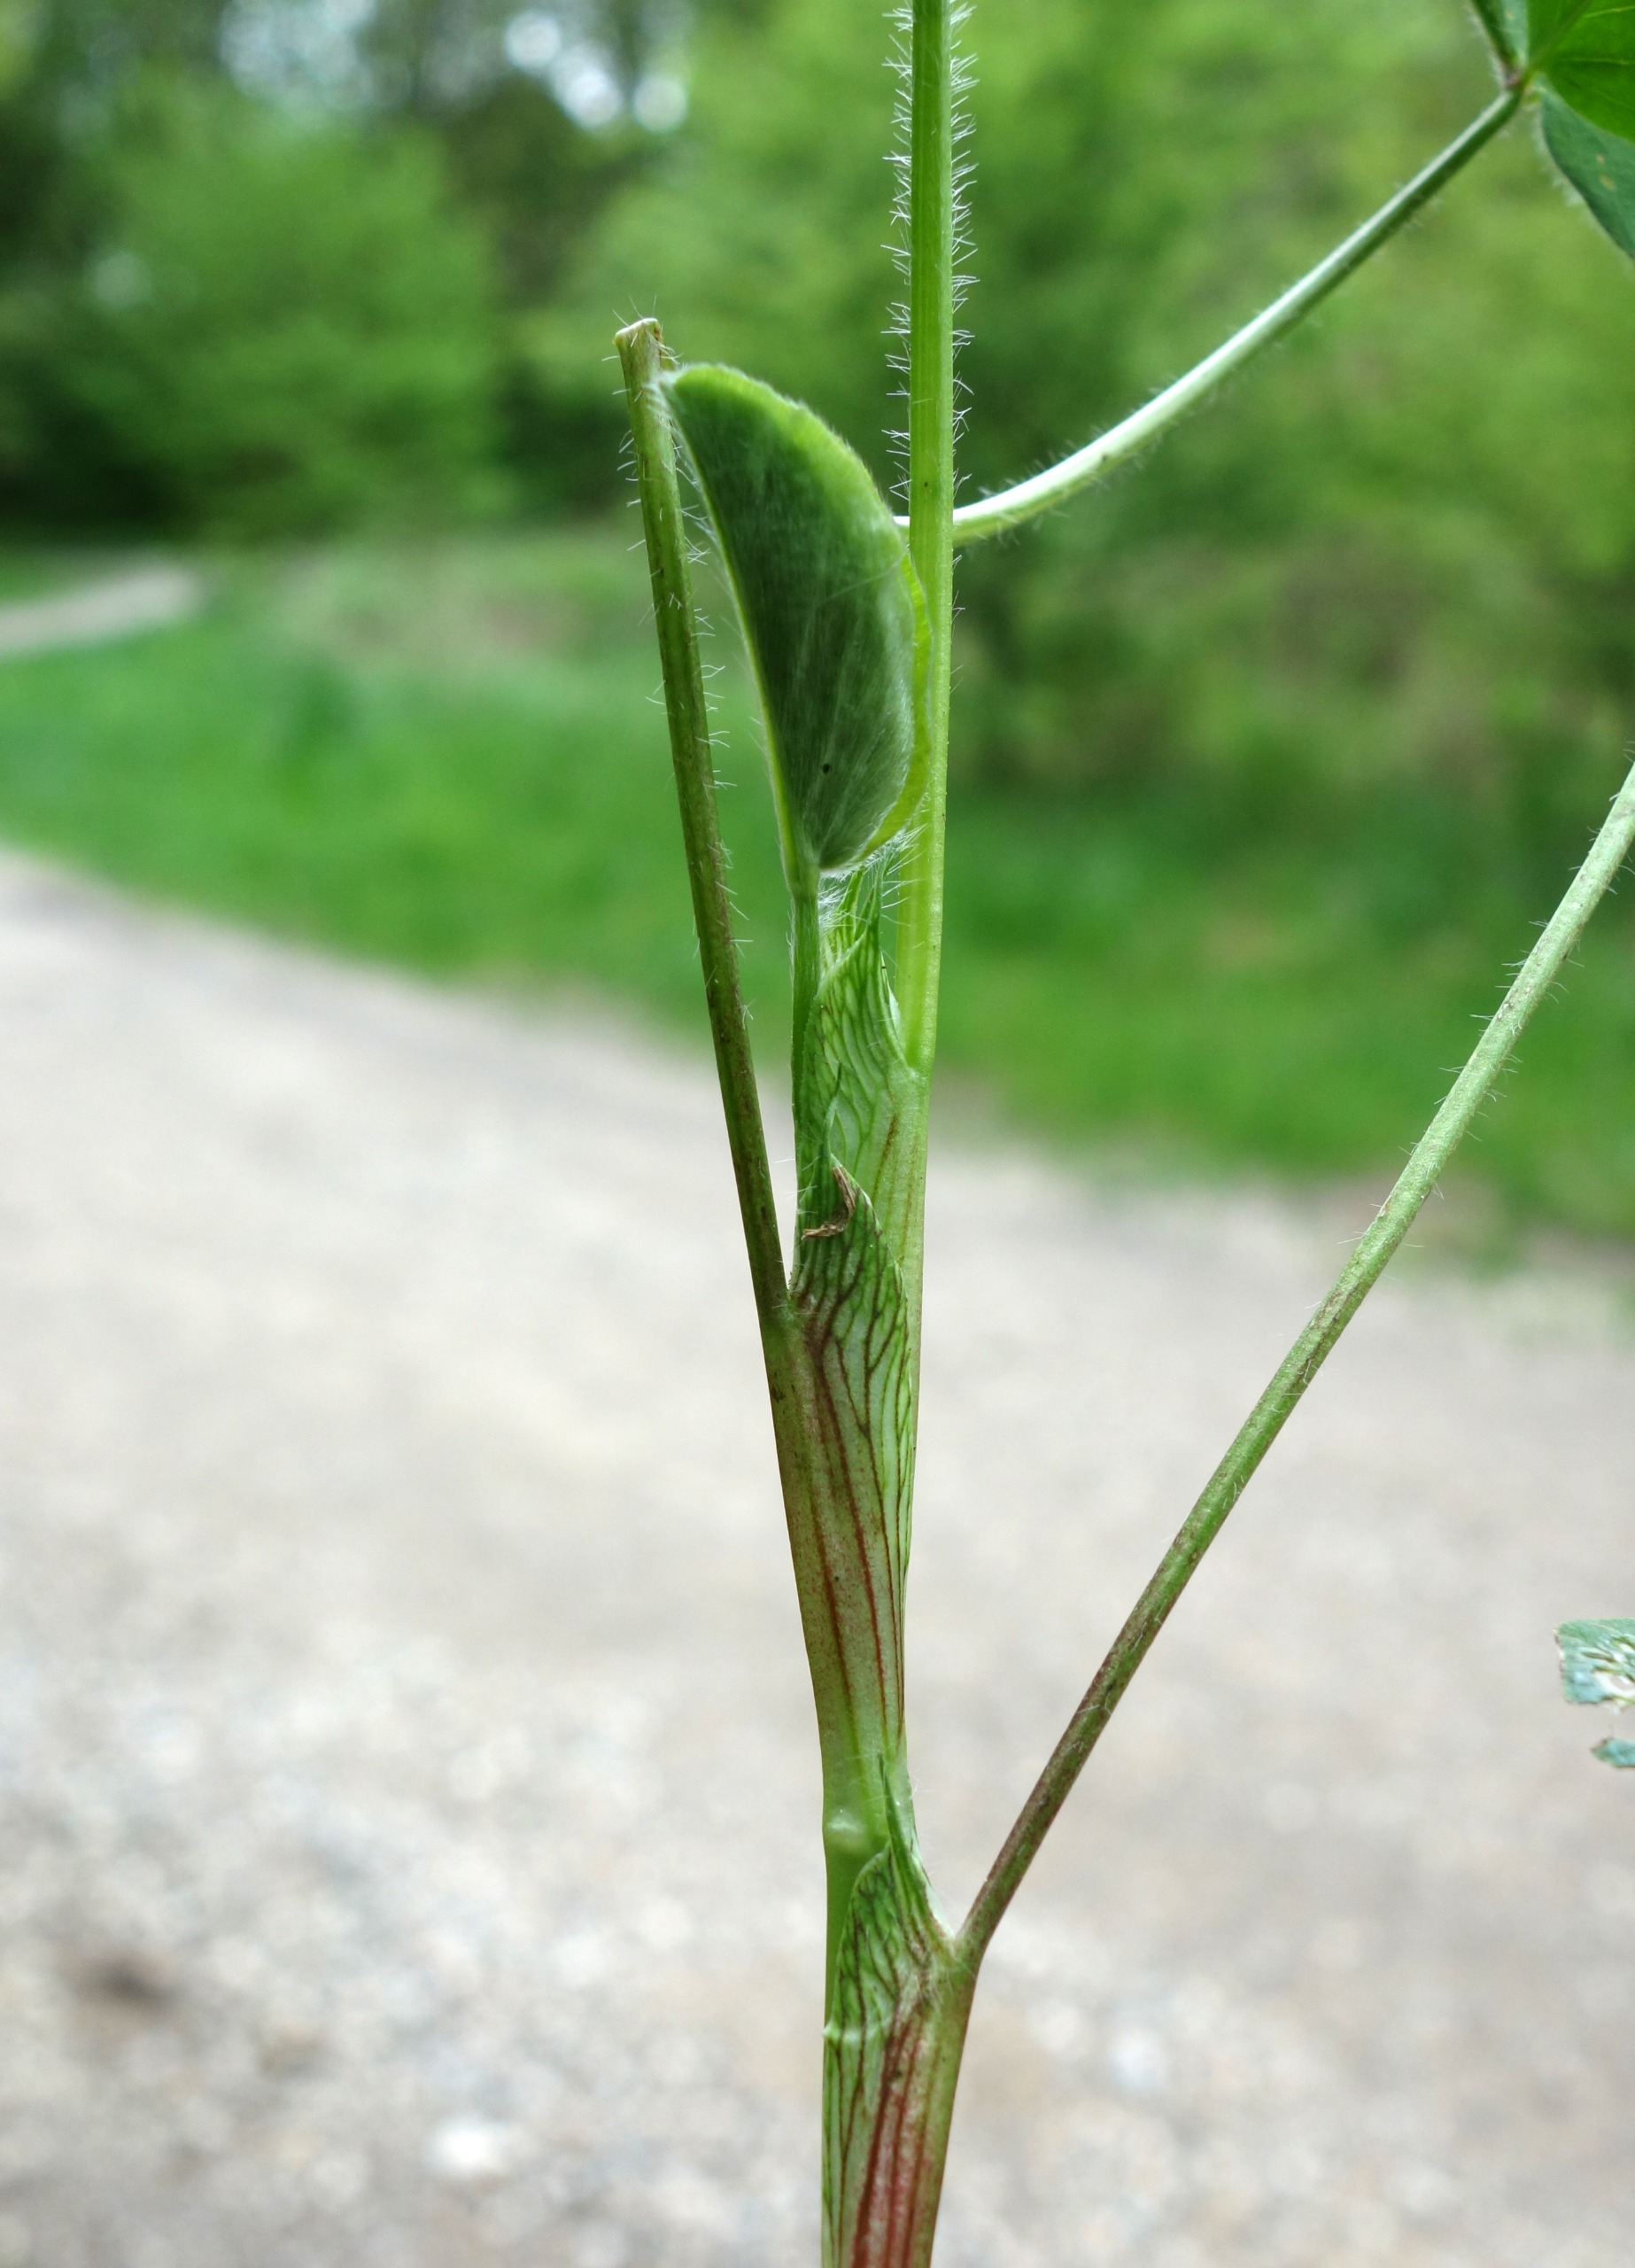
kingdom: Plantae
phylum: Tracheophyta
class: Magnoliopsida
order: Fabales
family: Fabaceae
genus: Trifolium
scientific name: Trifolium pratense
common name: Rød-kløver
